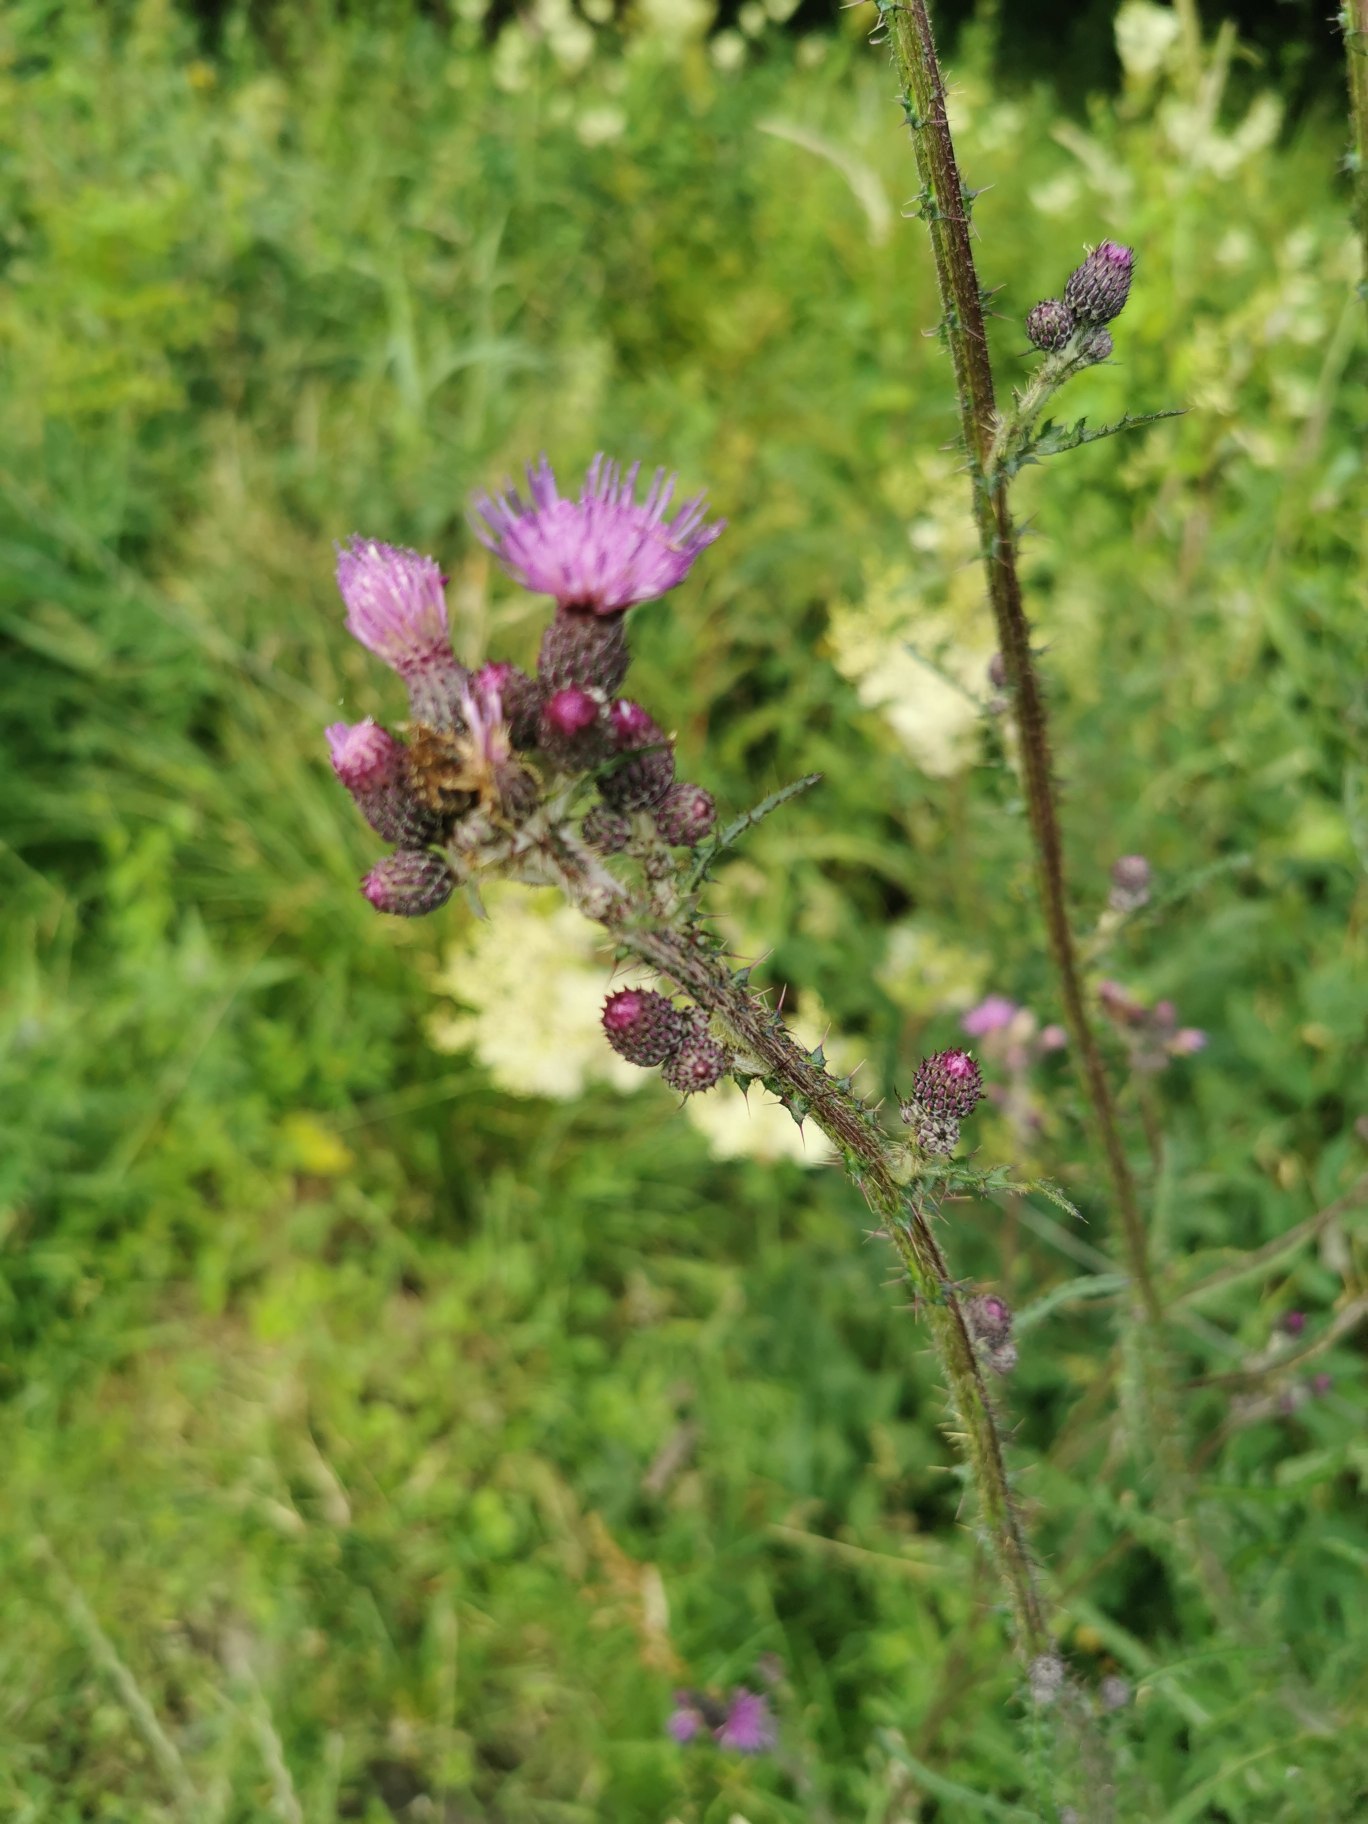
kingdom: Plantae
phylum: Tracheophyta
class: Magnoliopsida
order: Asterales
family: Asteraceae
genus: Cirsium
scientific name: Cirsium palustre
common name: Kær-tidsel
